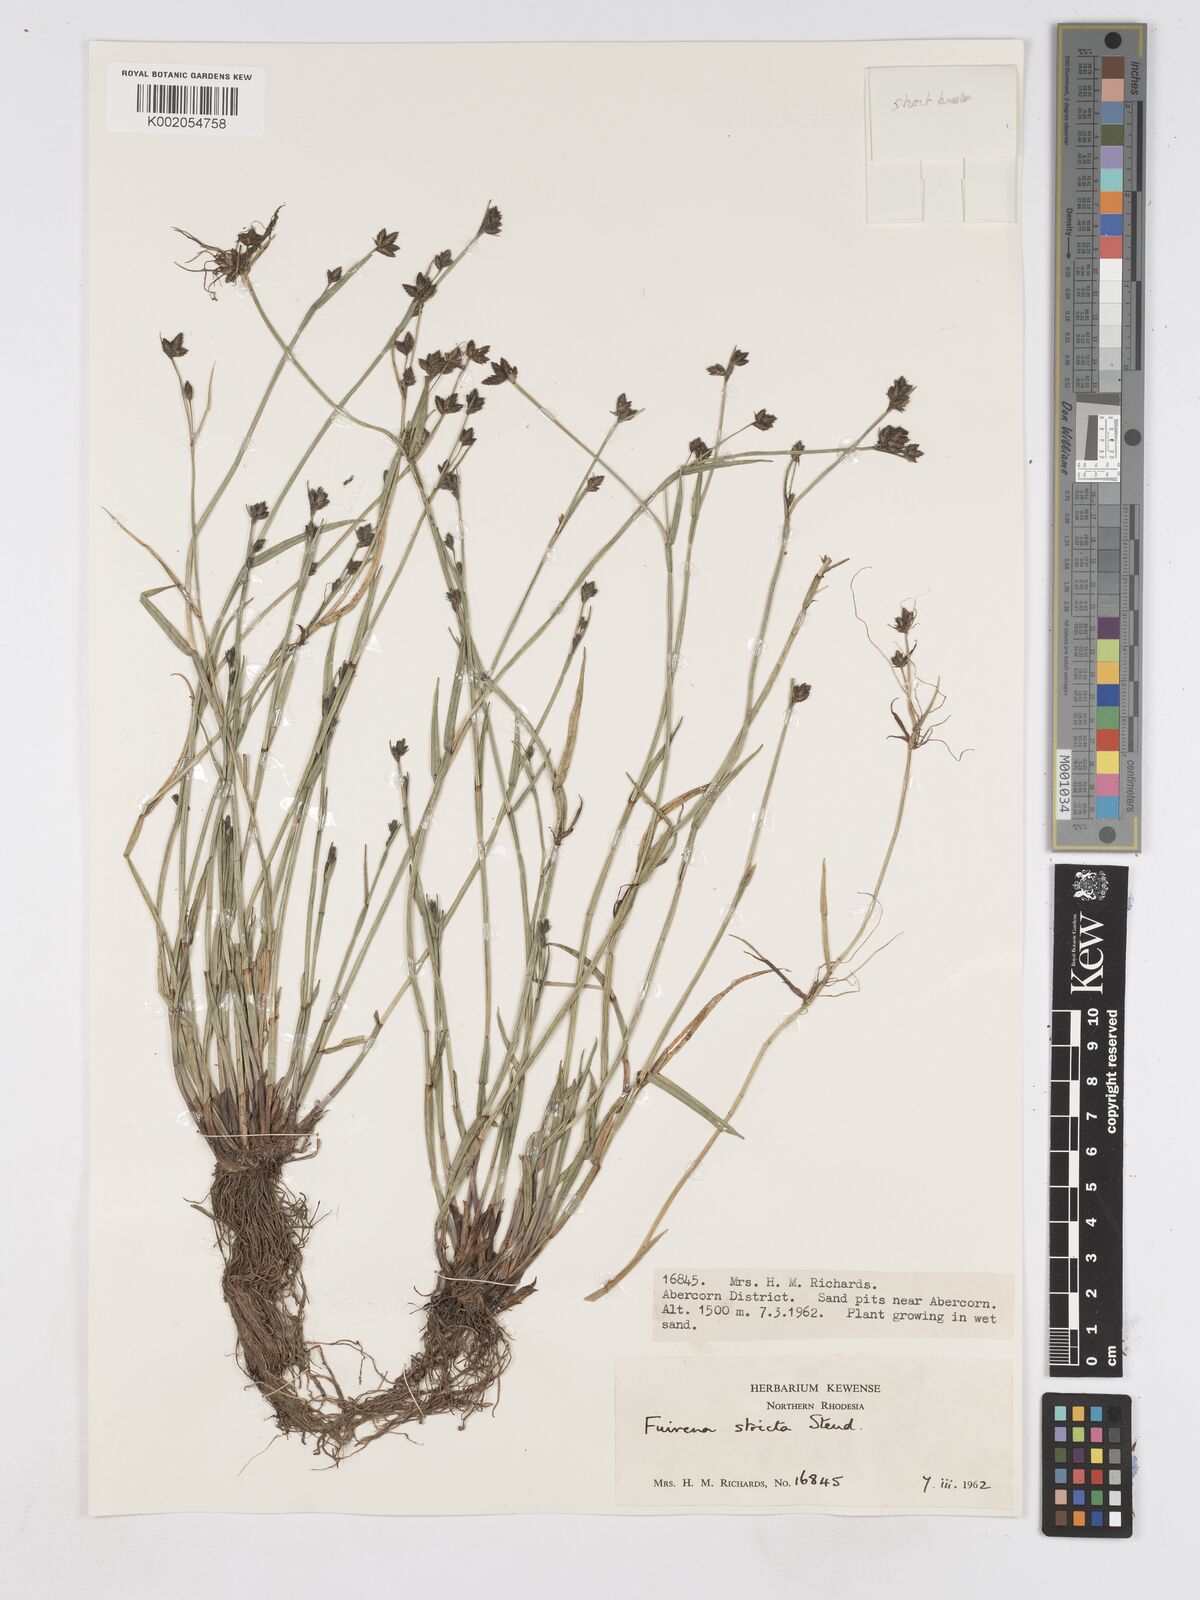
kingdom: Plantae
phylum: Tracheophyta
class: Liliopsida
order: Poales
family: Cyperaceae
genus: Fuirena
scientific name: Fuirena stricta
